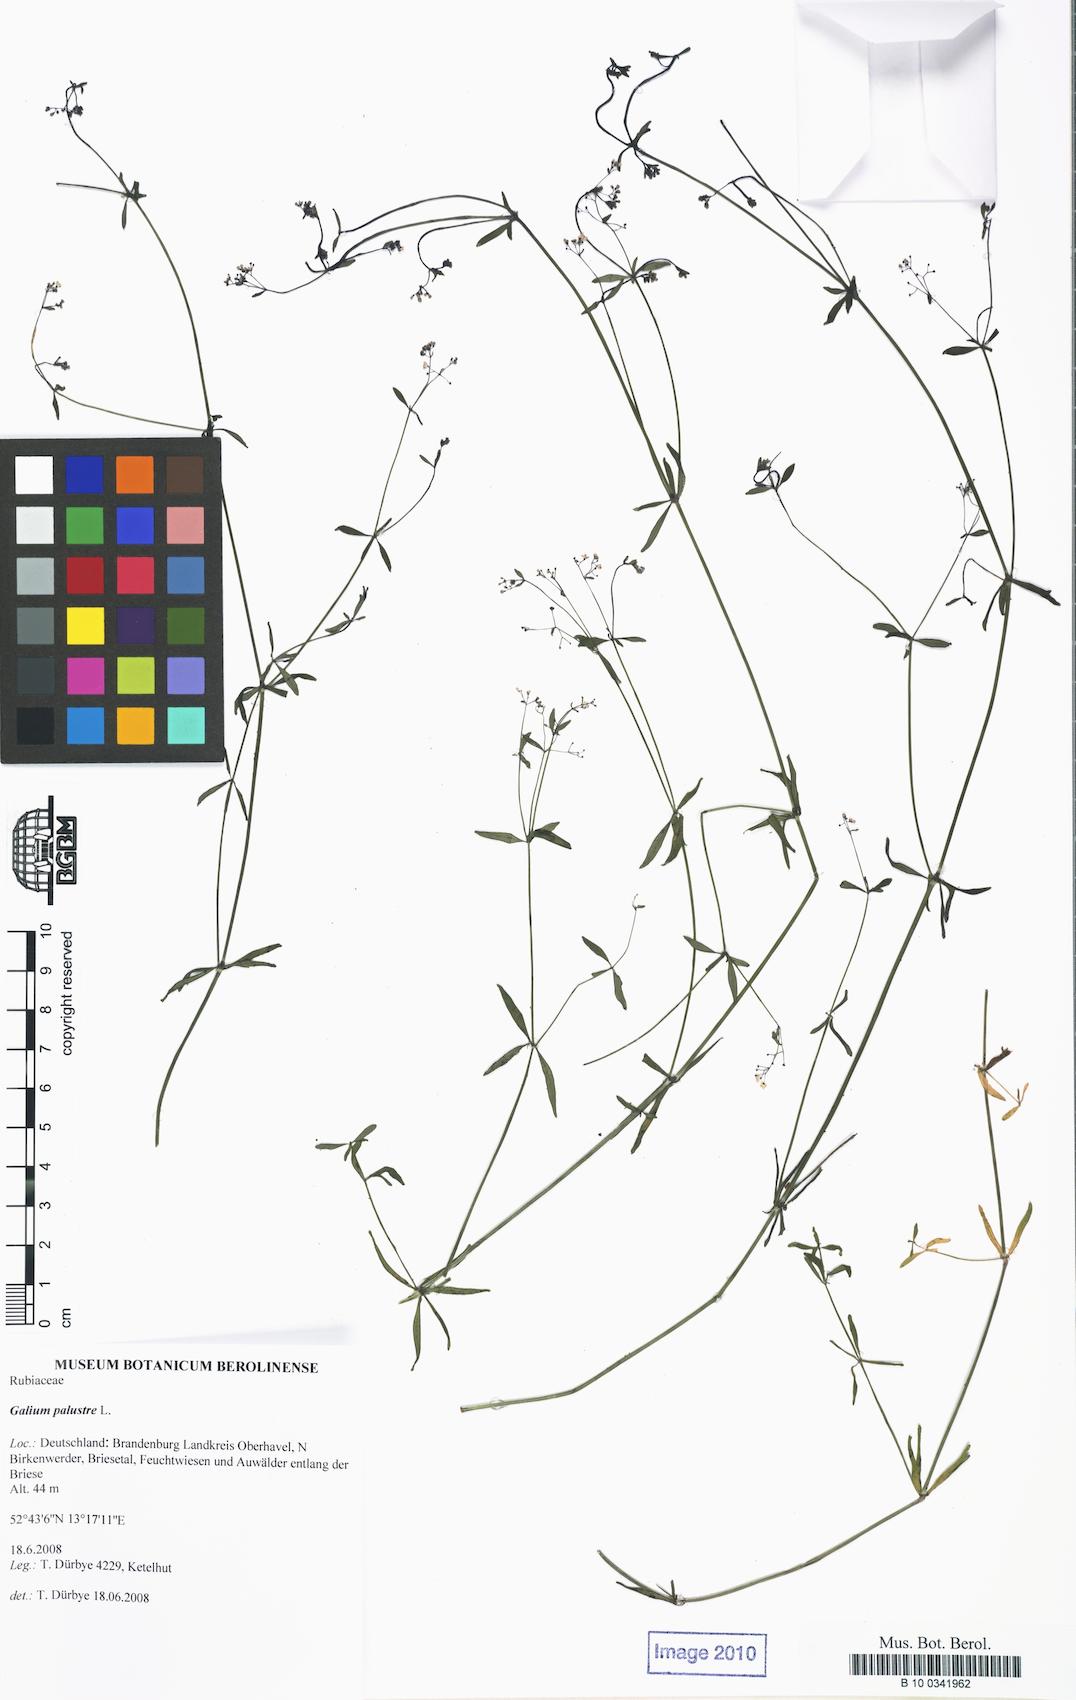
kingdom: Plantae
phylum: Tracheophyta
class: Magnoliopsida
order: Gentianales
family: Rubiaceae
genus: Galium
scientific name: Galium palustre
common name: Common marsh-bedstraw
